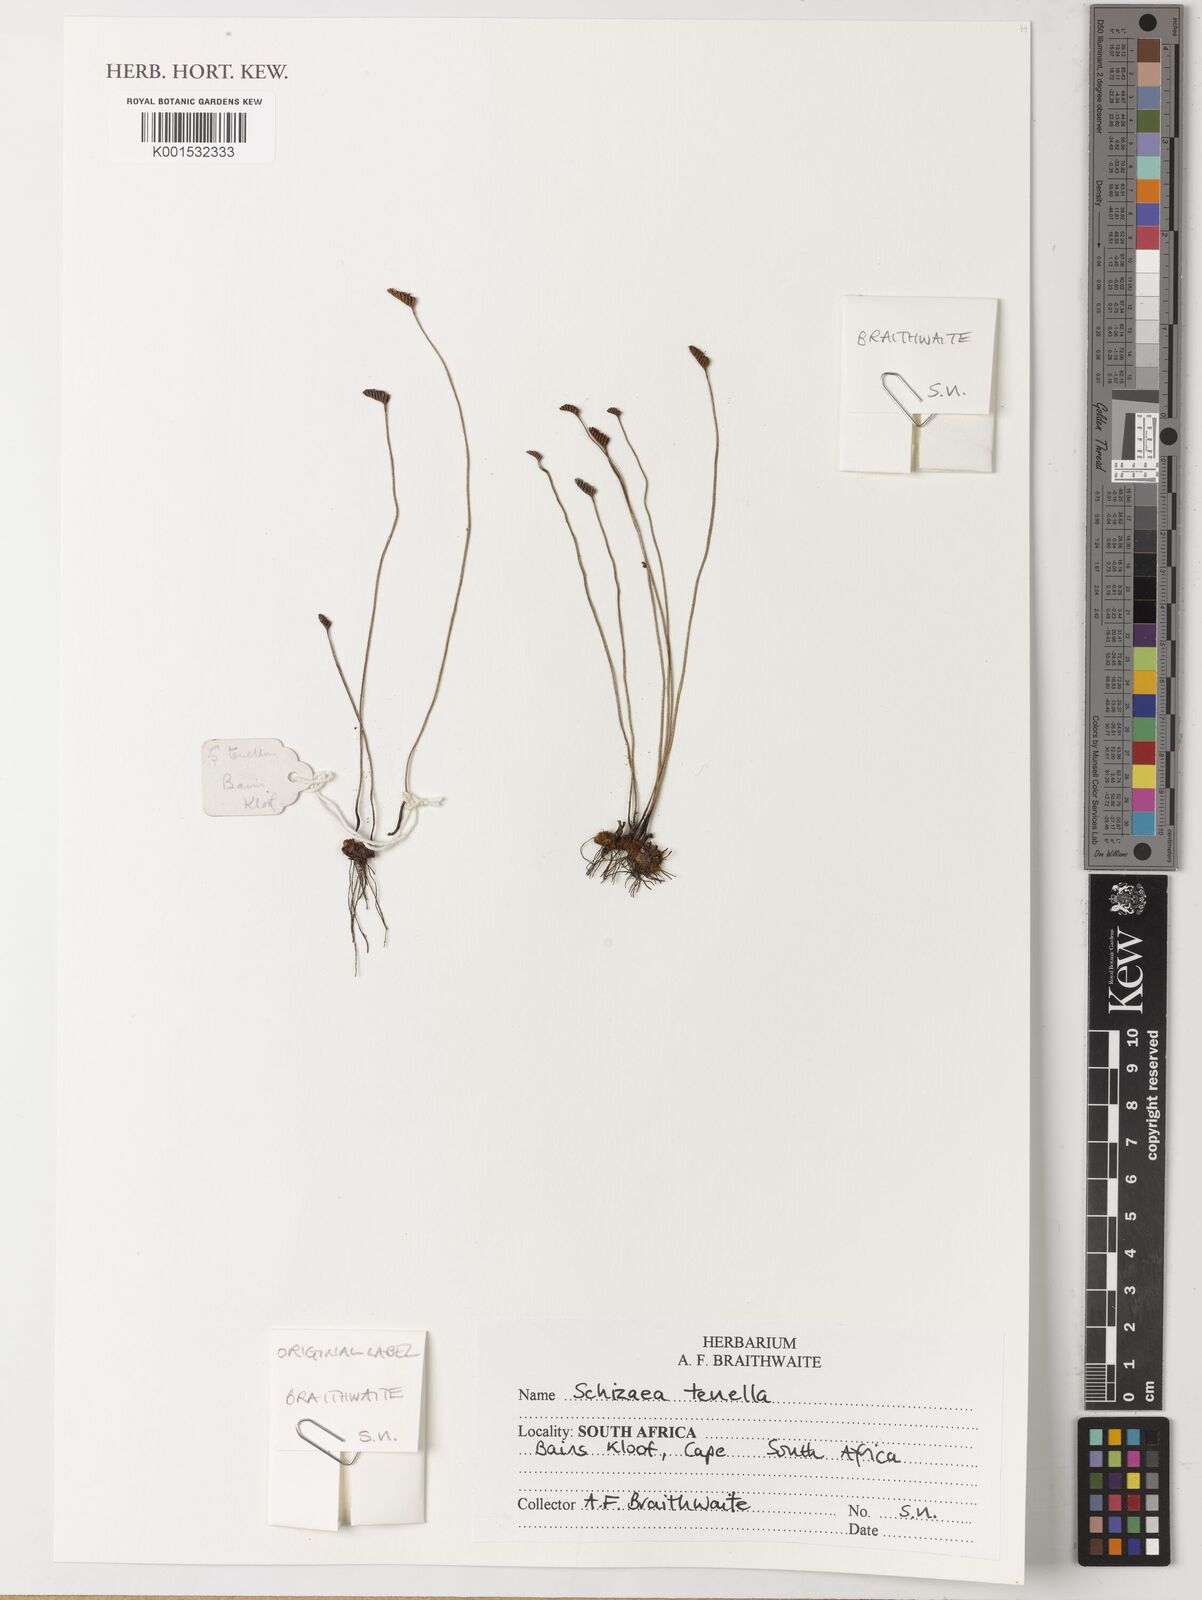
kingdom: Plantae
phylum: Tracheophyta
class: Polypodiopsida
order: Schizaeales
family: Anemiaceae
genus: Anemia
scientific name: Anemia phyllitidis
